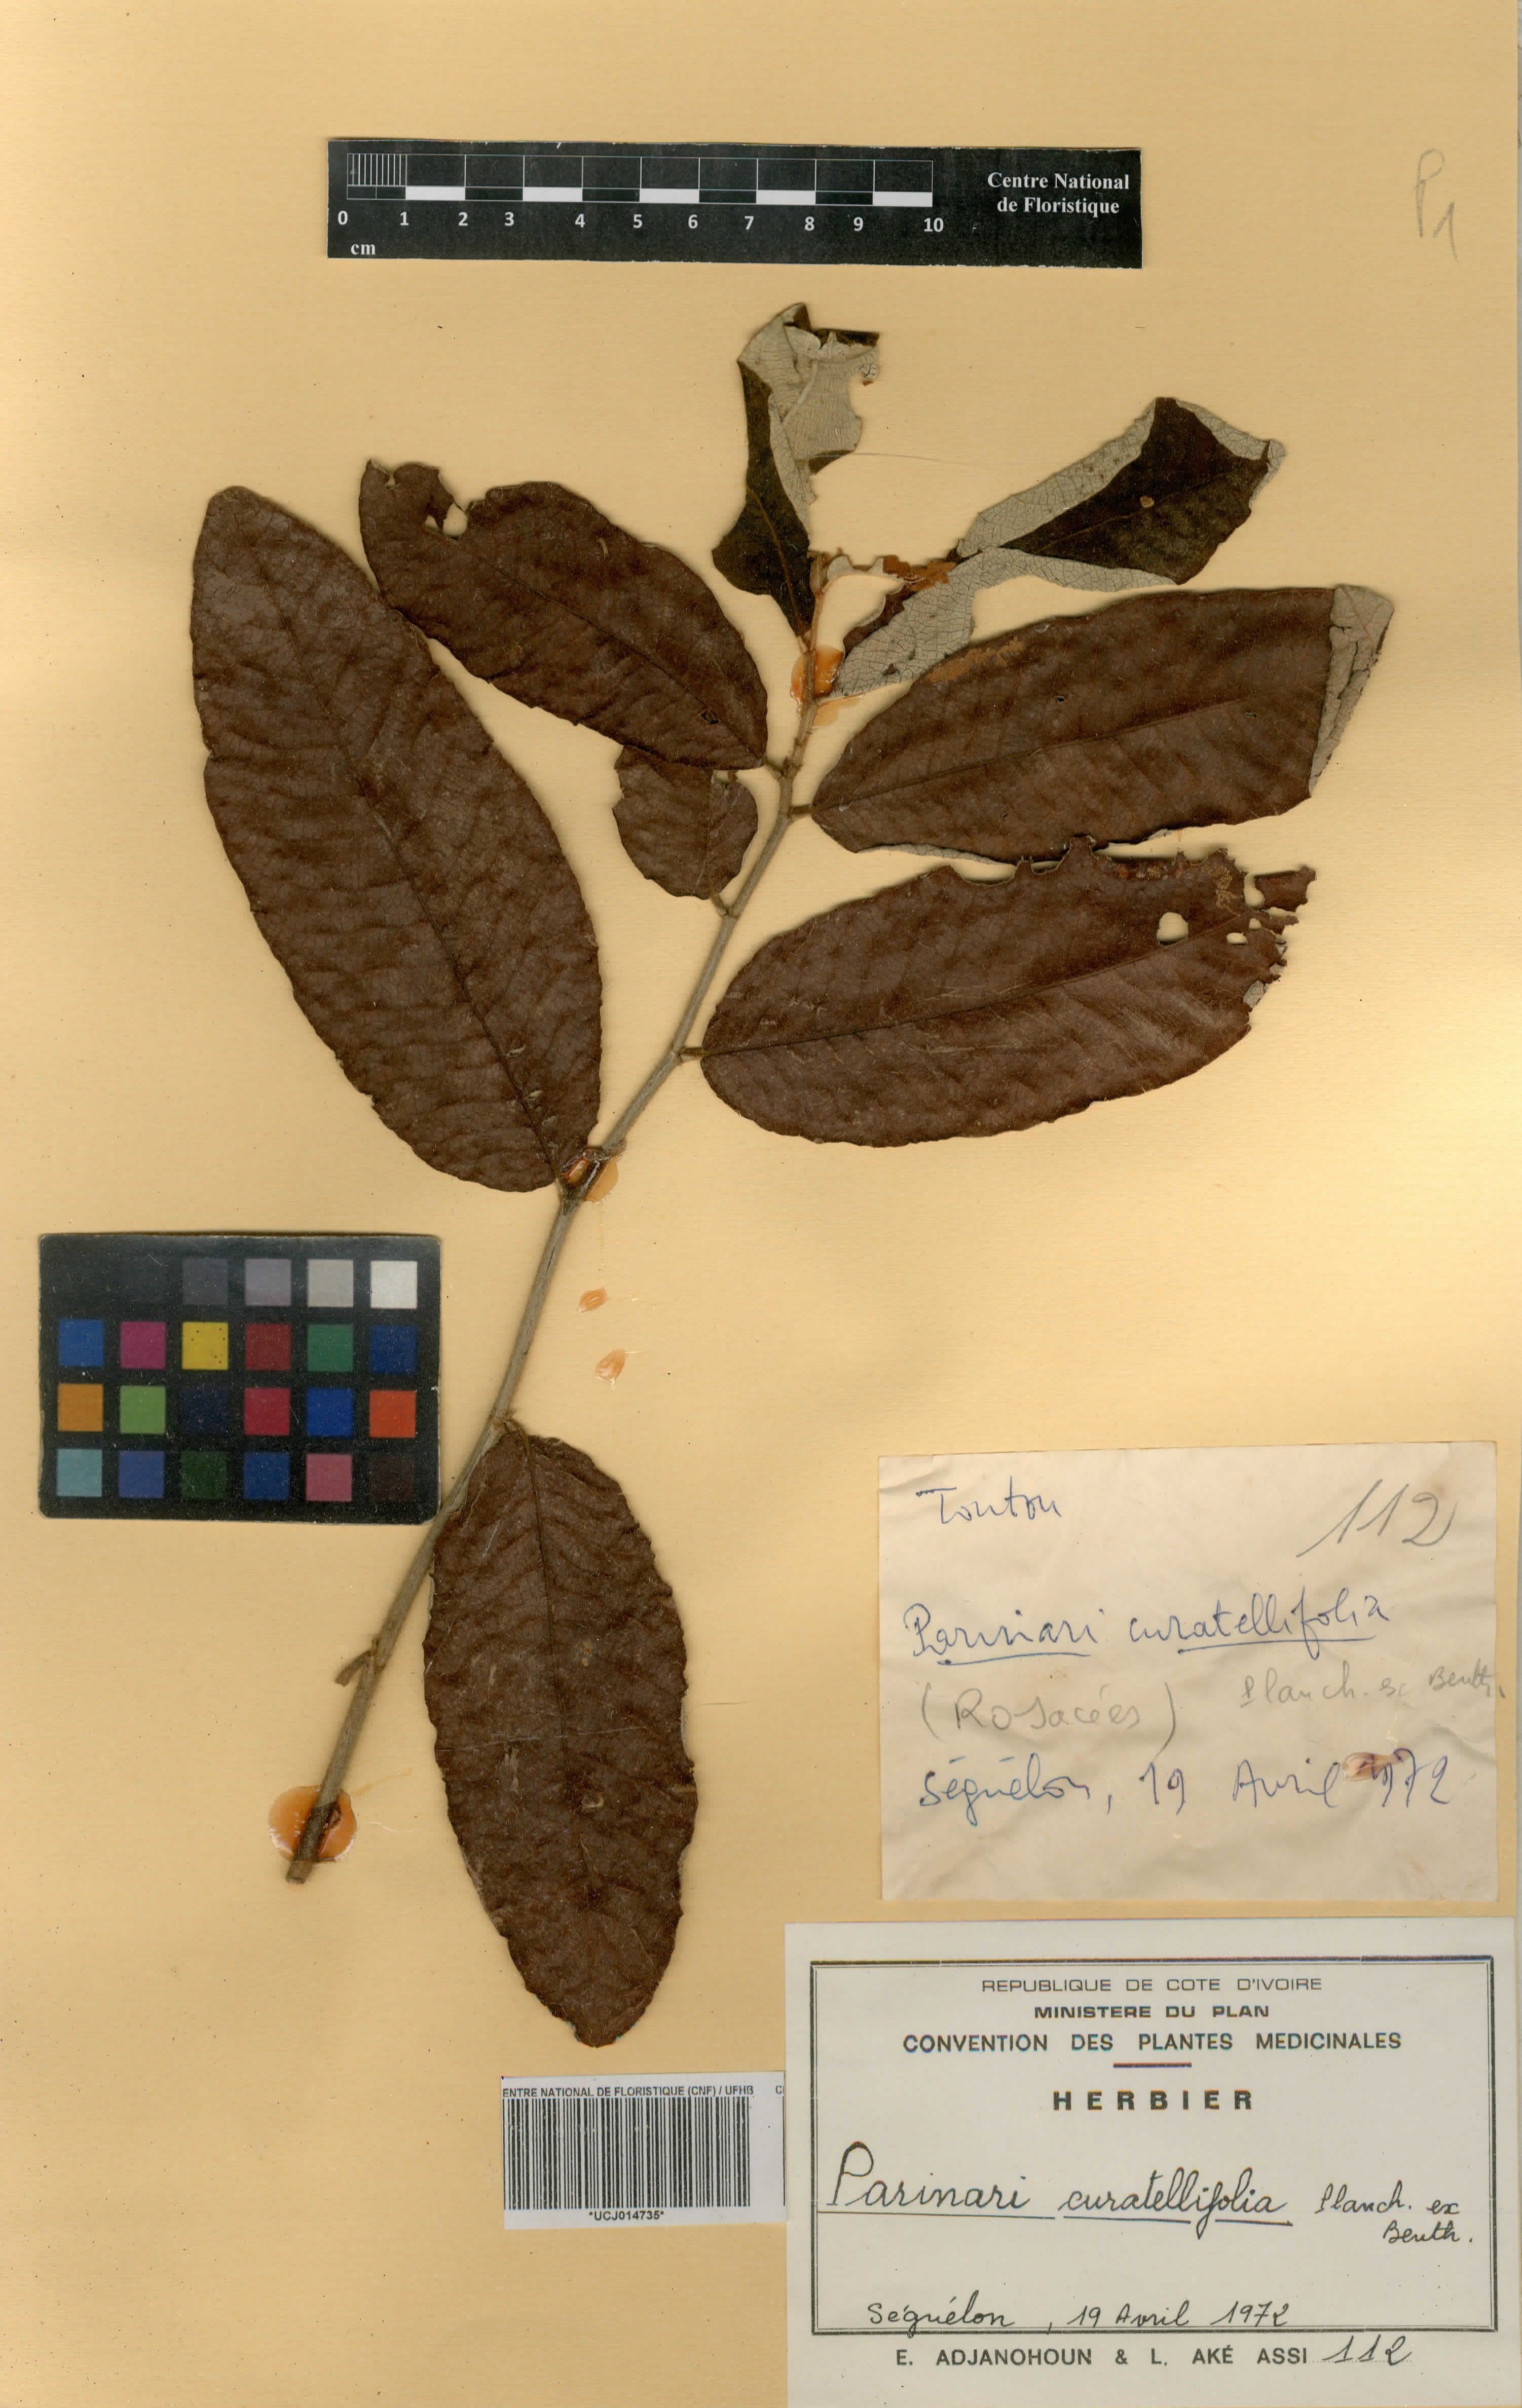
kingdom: Plantae
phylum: Tracheophyta
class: Magnoliopsida
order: Malpighiales
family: Chrysobalanaceae
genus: Parinari
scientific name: Parinari curatellifolia
